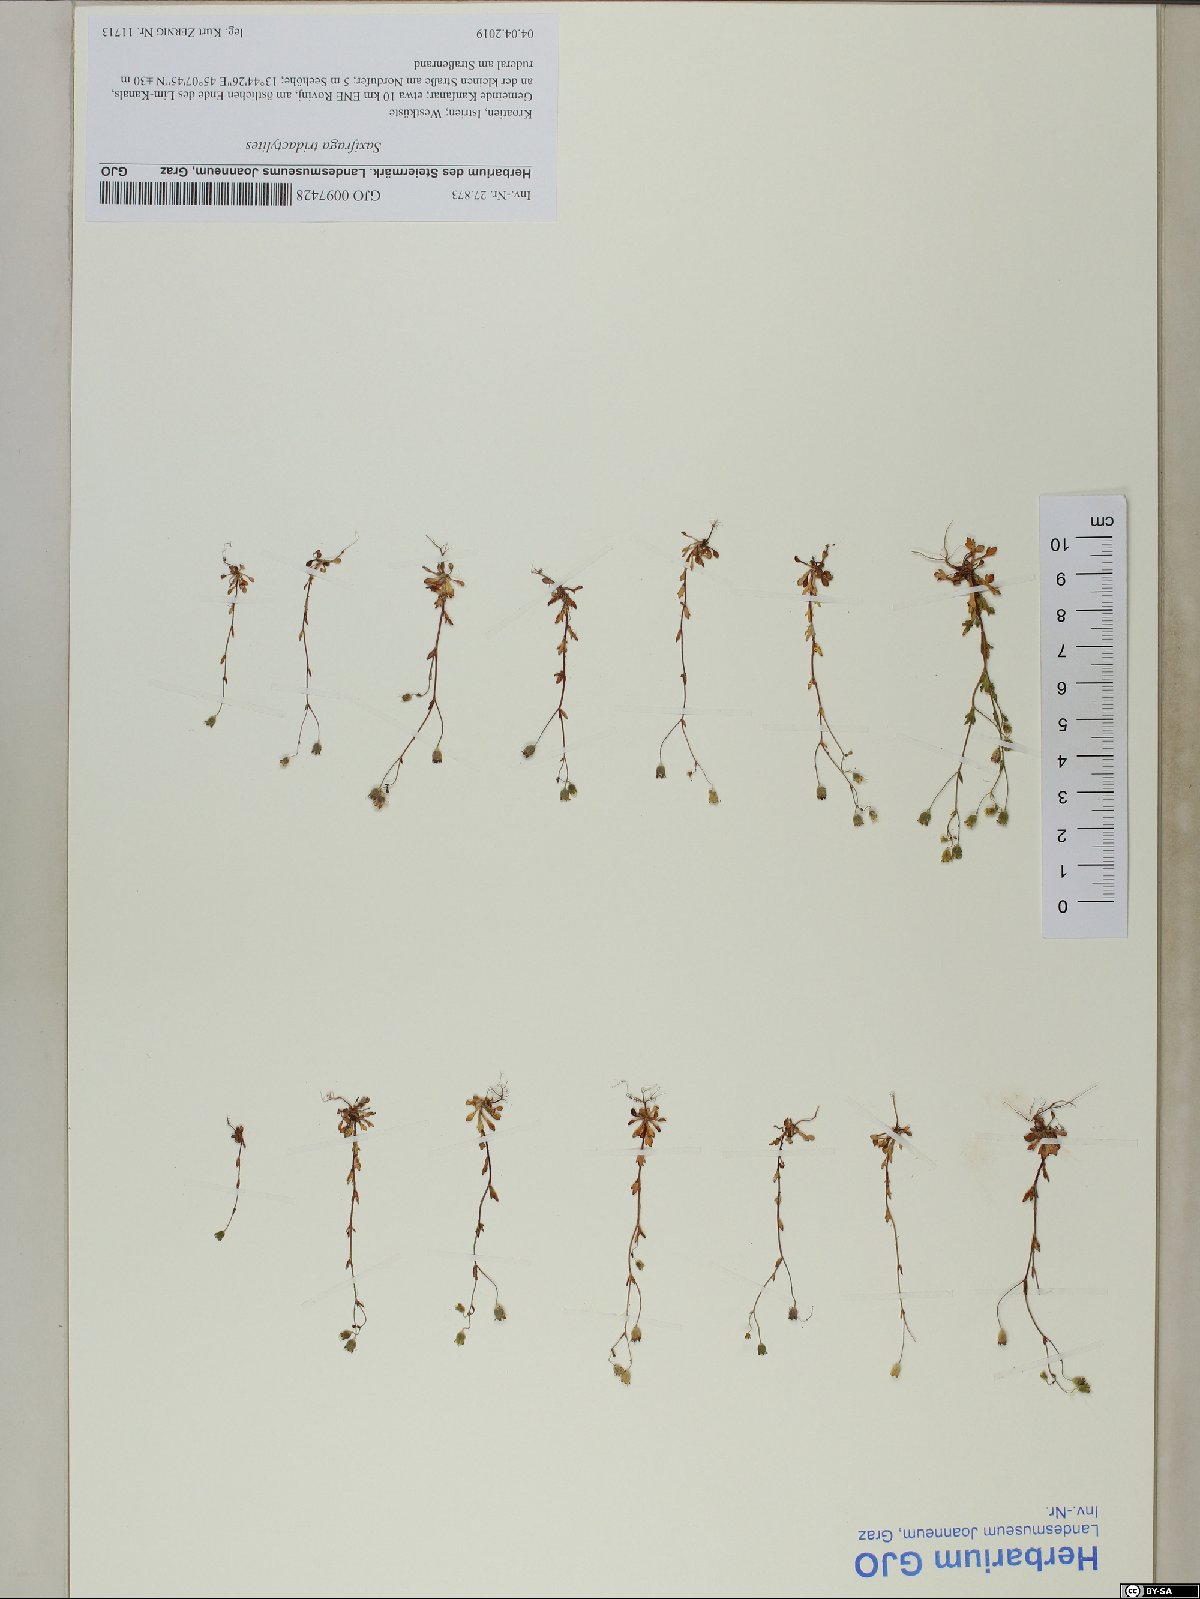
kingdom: Plantae
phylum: Tracheophyta
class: Magnoliopsida
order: Saxifragales
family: Saxifragaceae
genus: Saxifraga
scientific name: Saxifraga tridactylites
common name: Rue-leaved saxifrage
